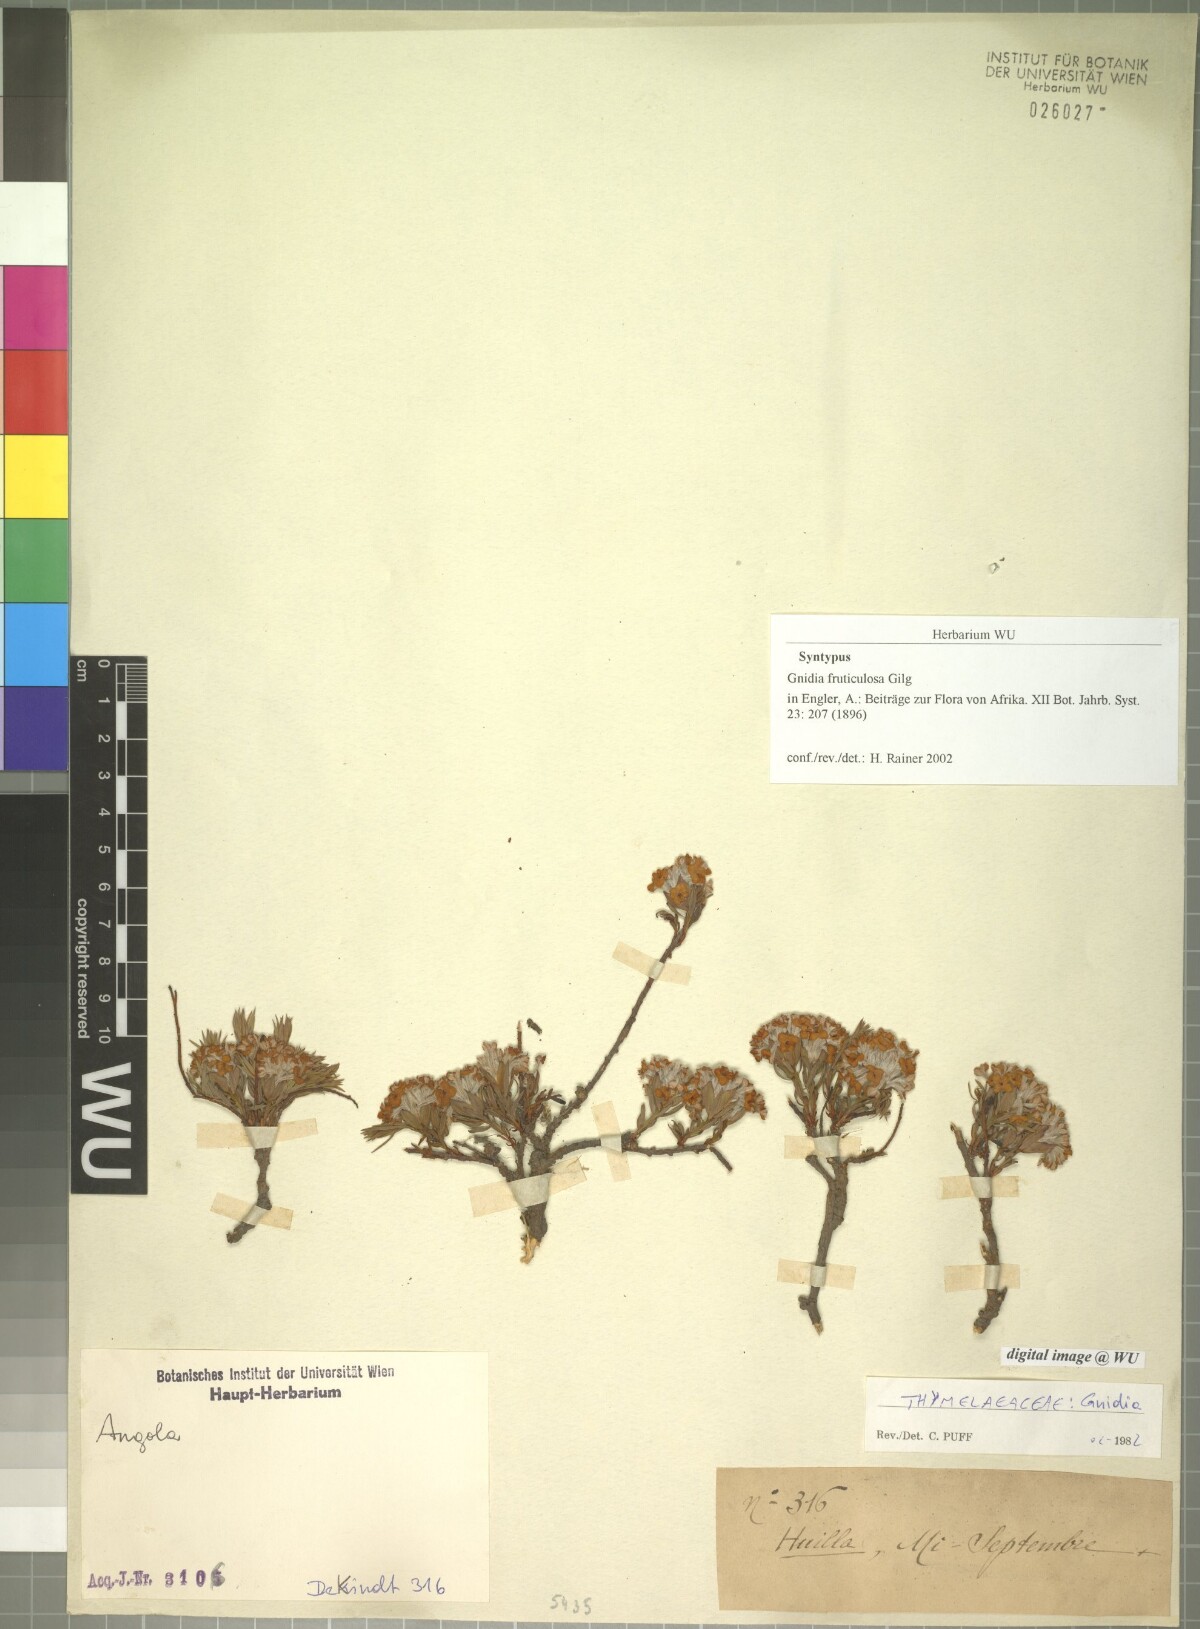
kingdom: Plantae
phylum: Tracheophyta
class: Magnoliopsida
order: Malvales
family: Thymelaeaceae
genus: Gnidia
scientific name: Gnidia fruticulosa
